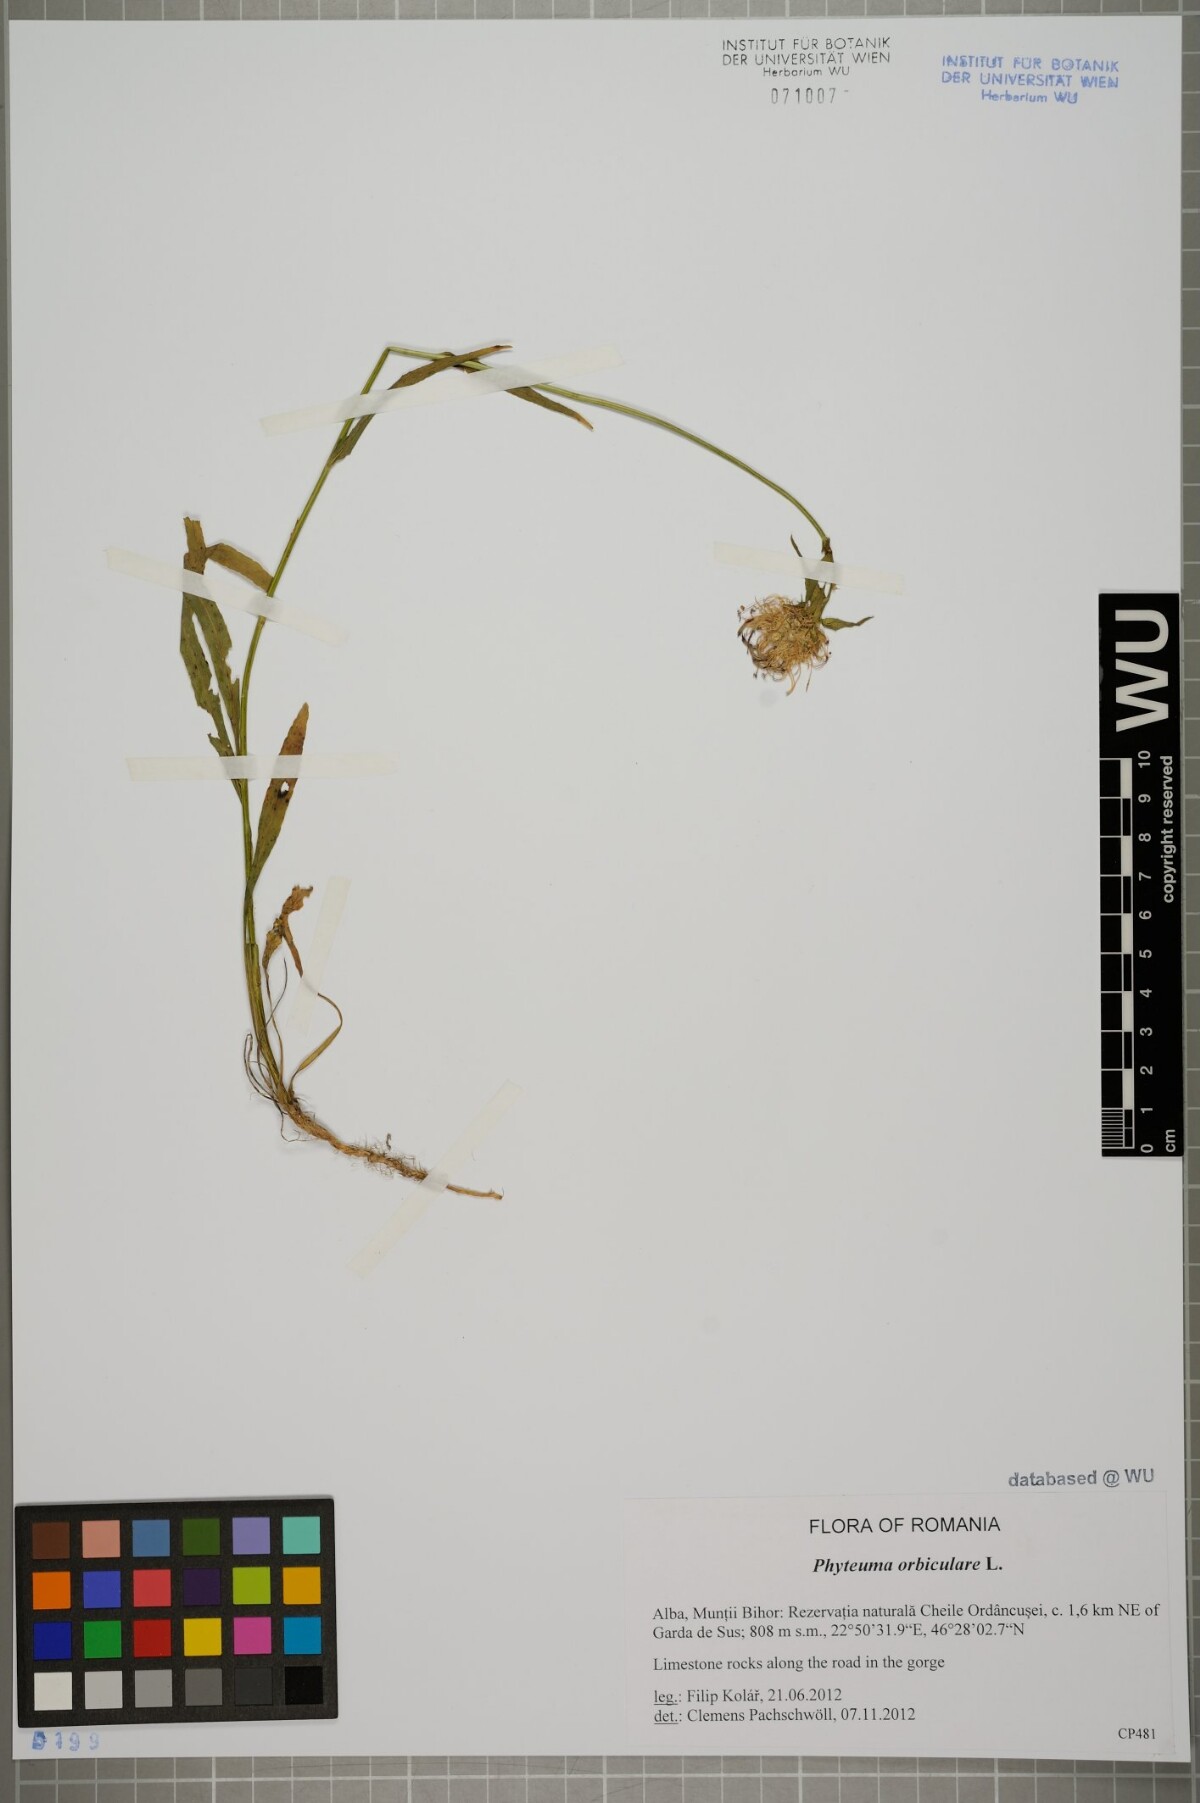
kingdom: Plantae
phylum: Tracheophyta
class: Magnoliopsida
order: Asterales
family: Campanulaceae
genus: Phyteuma
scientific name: Phyteuma orbiculare
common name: Round-headed rampion
